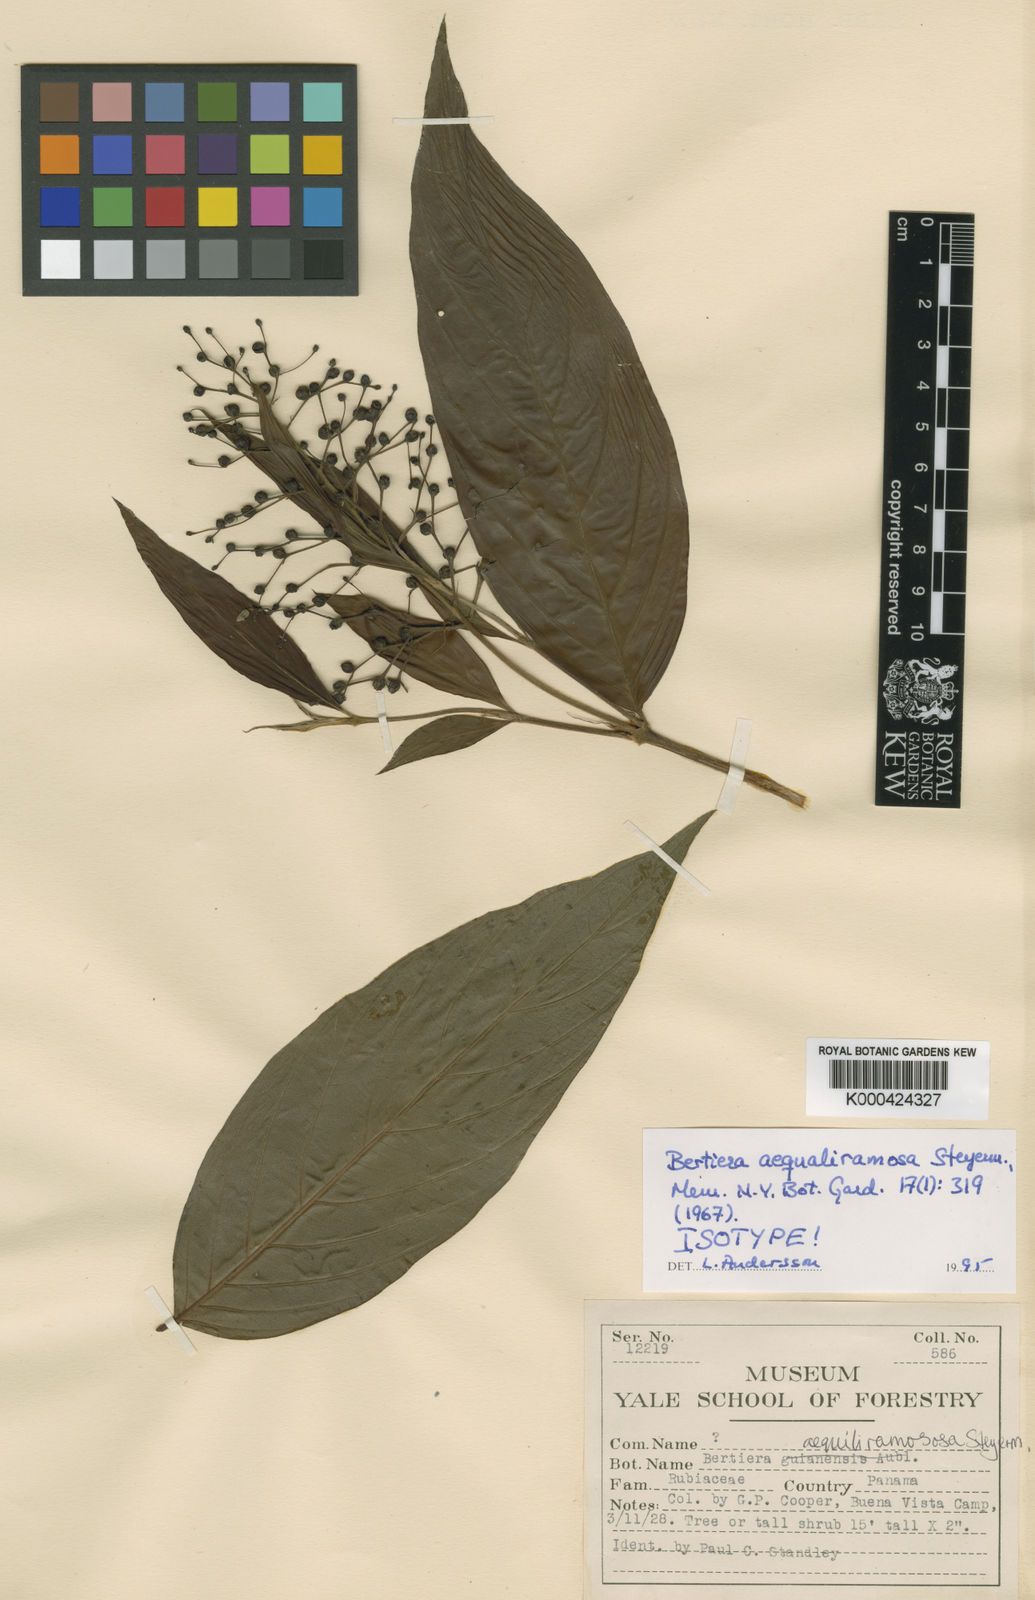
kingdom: Plantae
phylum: Tracheophyta
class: Magnoliopsida
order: Gentianales
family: Rubiaceae
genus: Bertiera
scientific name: Bertiera angustifolia
